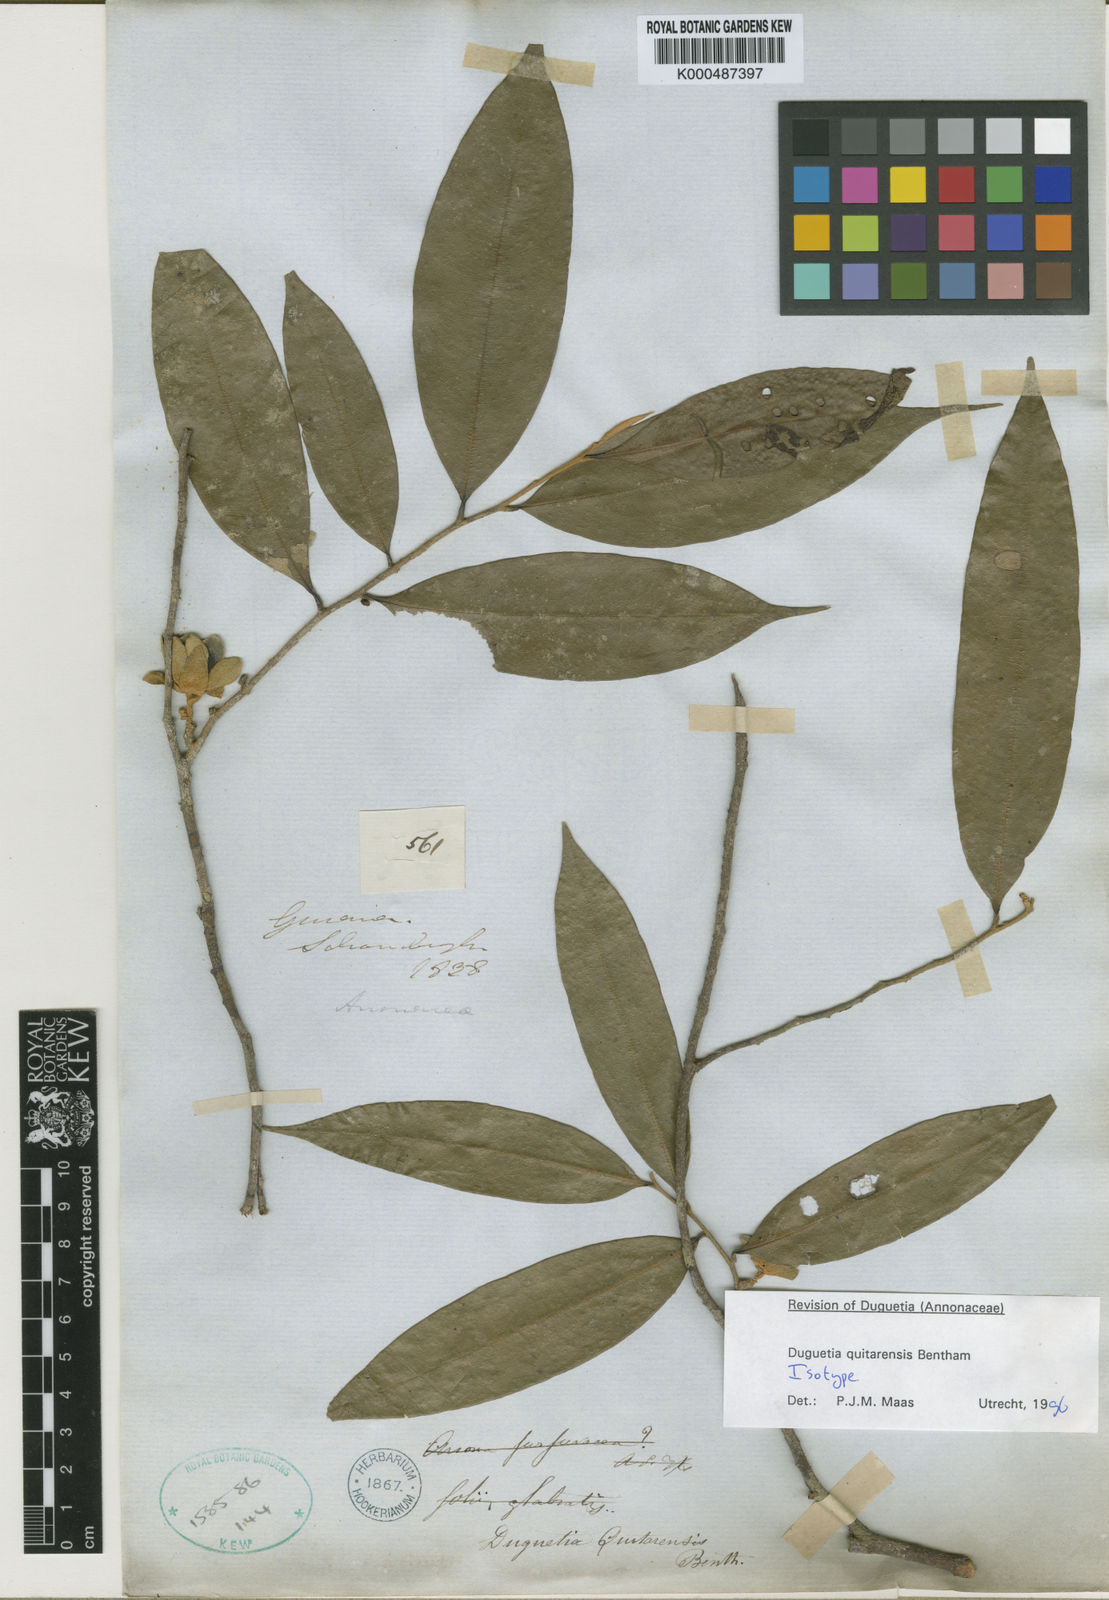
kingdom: Plantae
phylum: Tracheophyta
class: Magnoliopsida
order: Magnoliales
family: Annonaceae
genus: Duguetia
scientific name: Duguetia quitarensis
